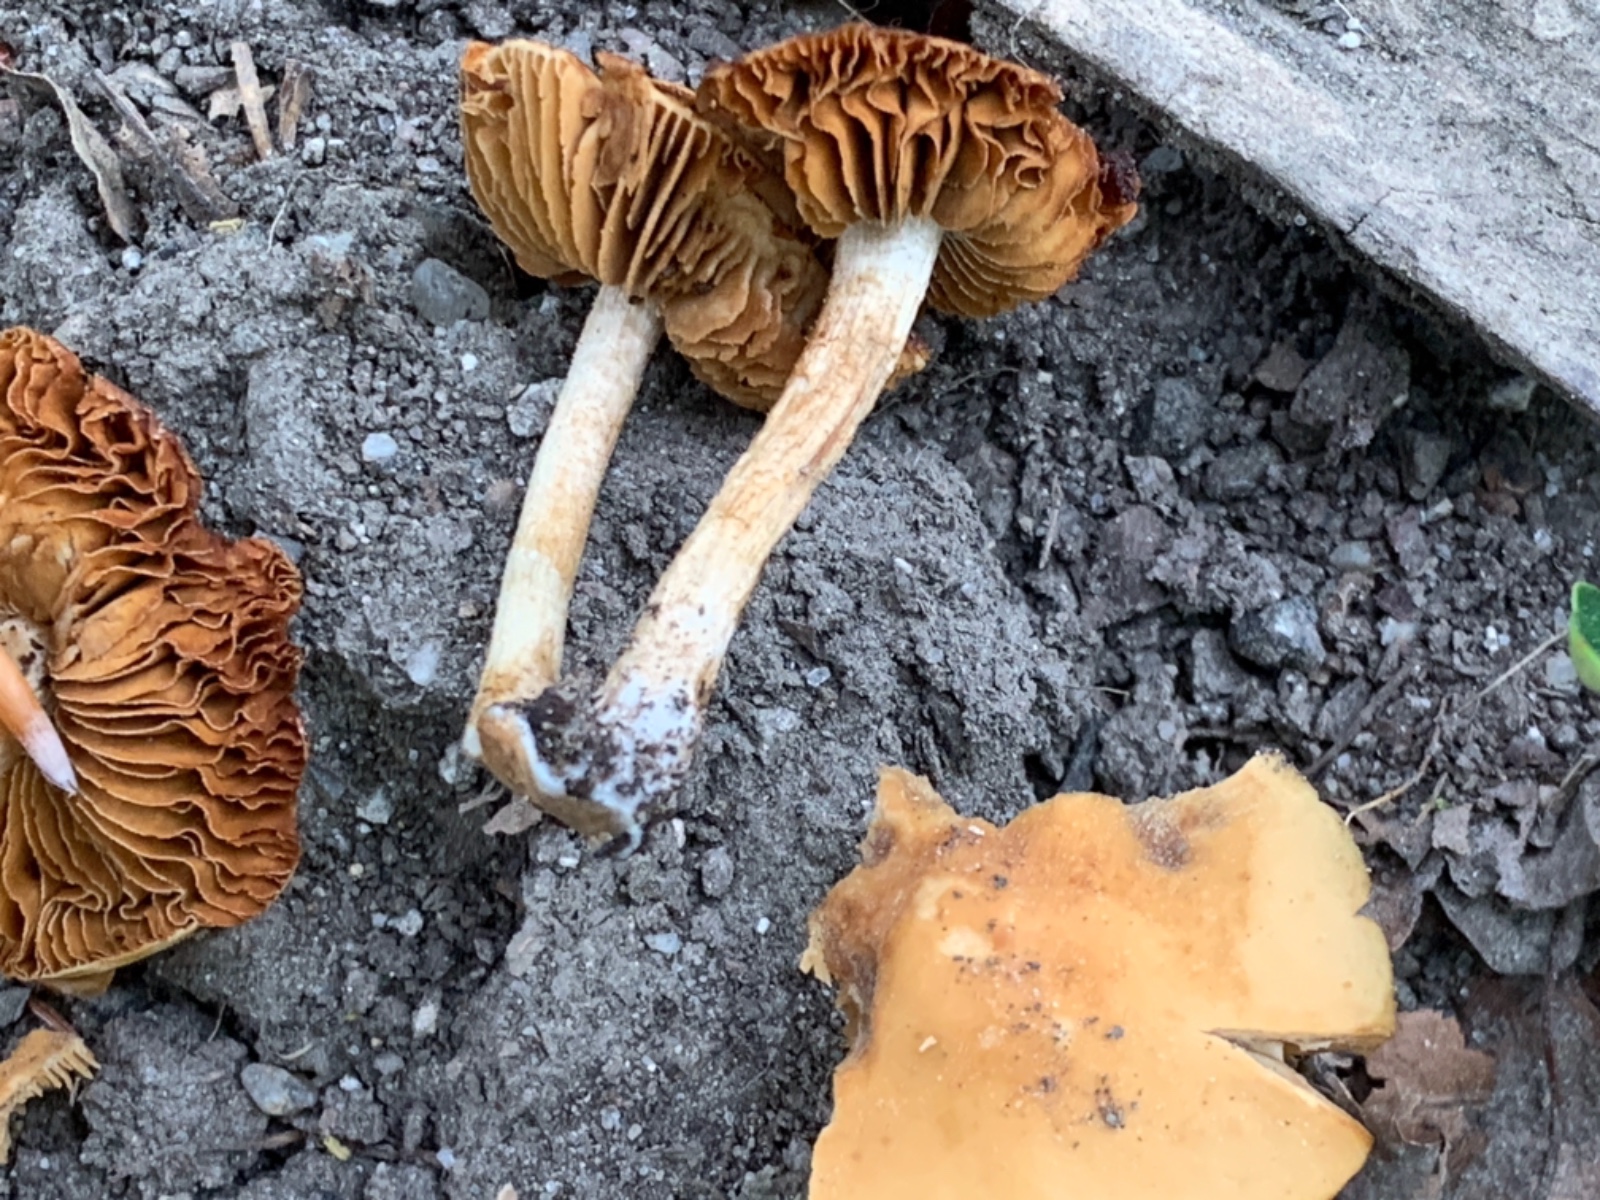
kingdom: Fungi
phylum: Basidiomycota
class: Agaricomycetes
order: Agaricales
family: Bolbitiaceae
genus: Conocybe
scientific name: Conocybe aporos
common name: tidlig dansehat
